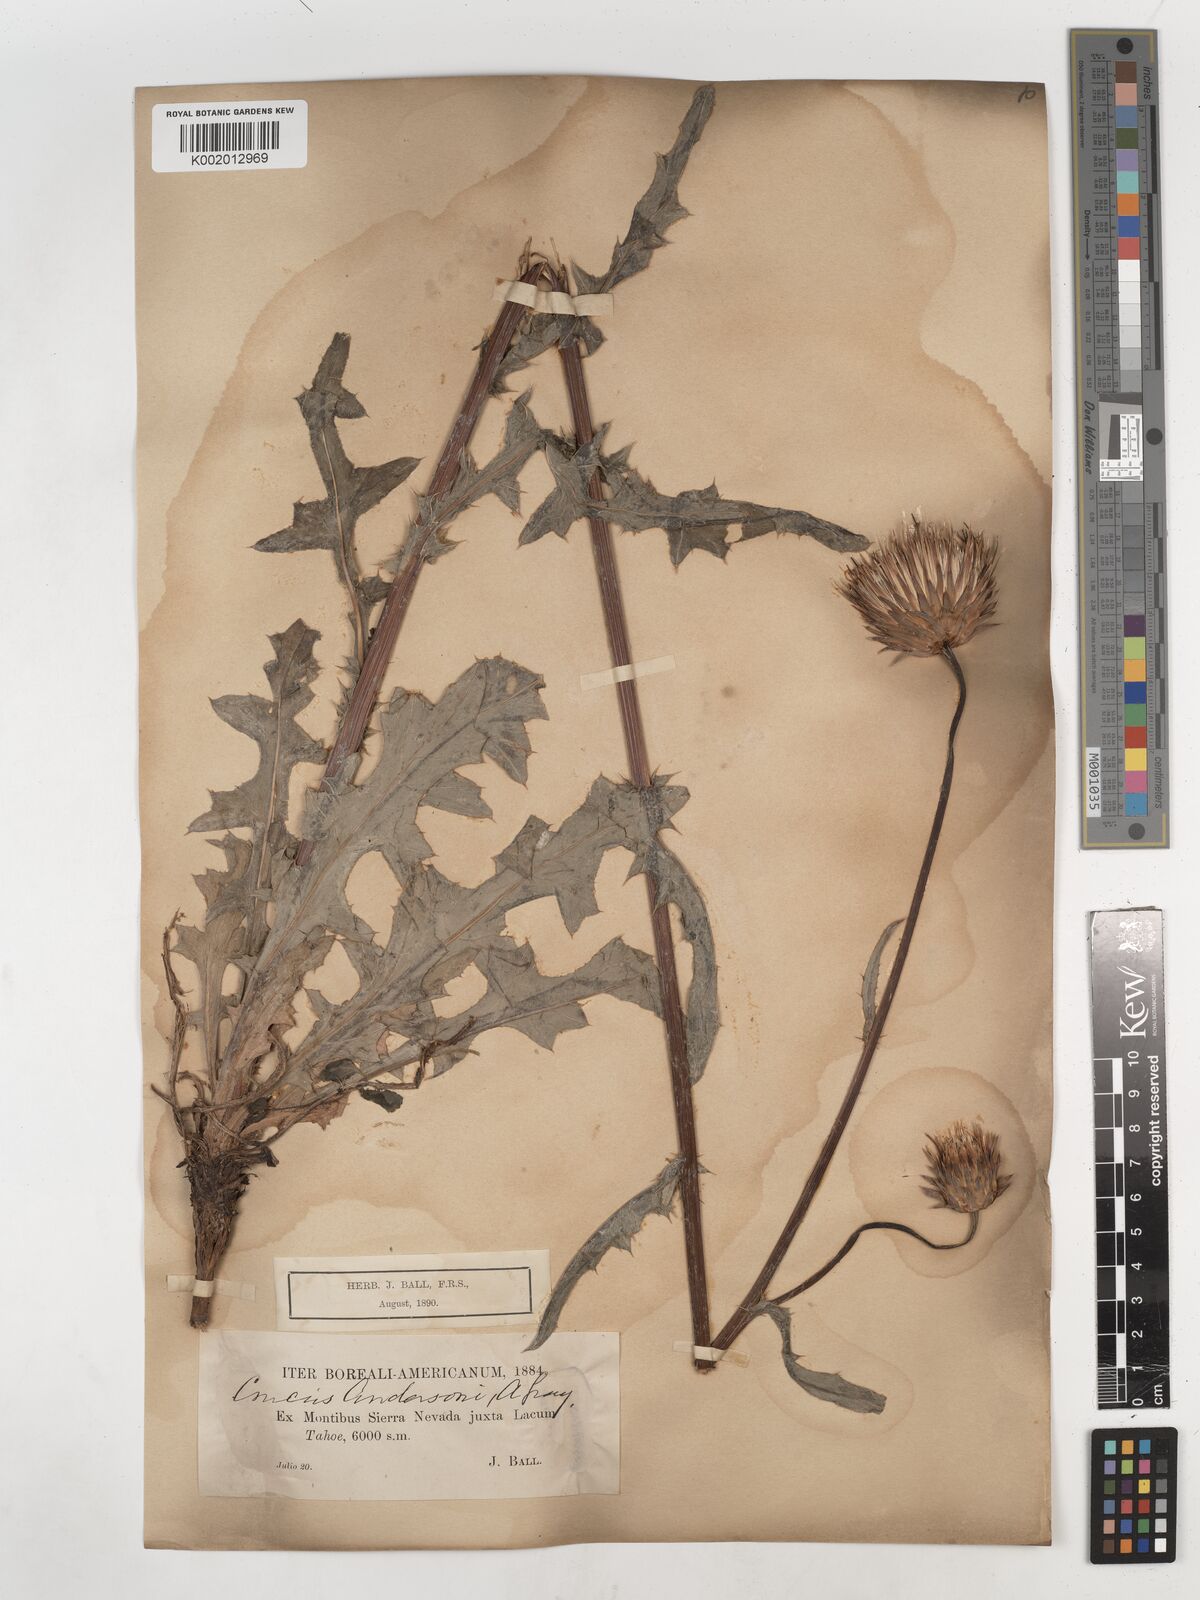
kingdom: Plantae
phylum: Tracheophyta
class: Magnoliopsida
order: Asterales
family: Asteraceae
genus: Cirsium
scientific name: Cirsium
